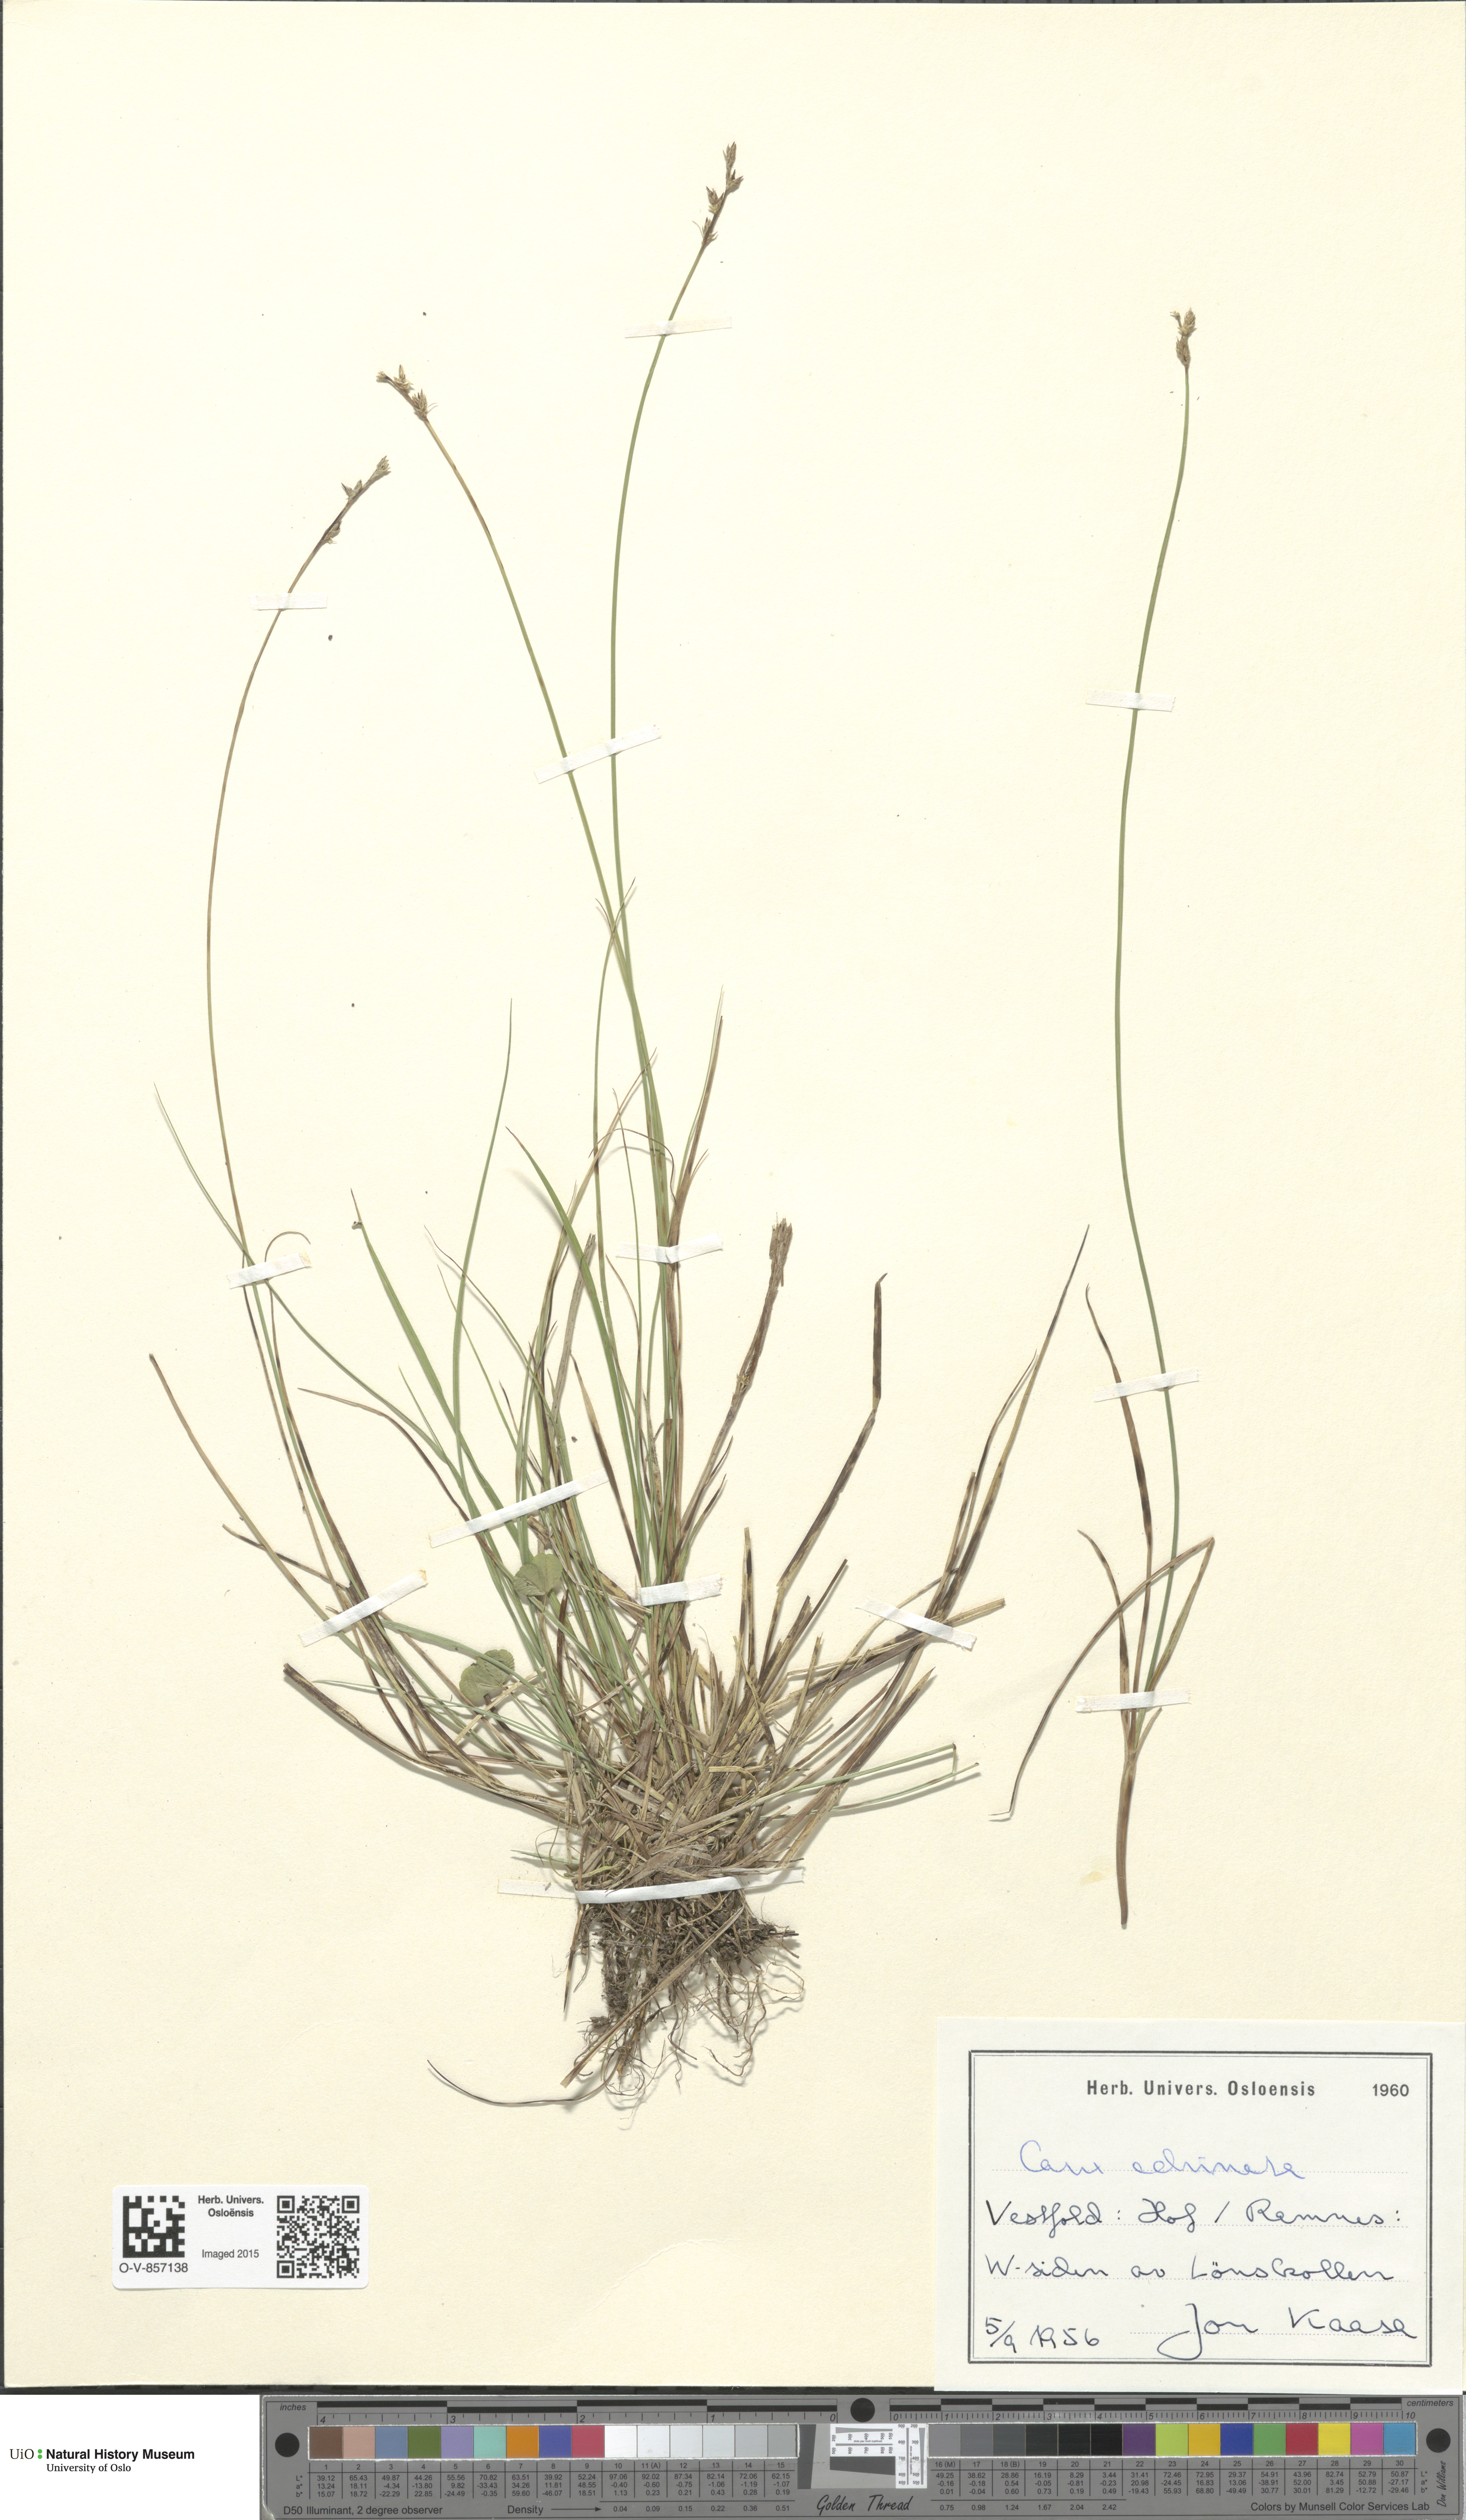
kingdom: Plantae
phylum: Tracheophyta
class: Liliopsida
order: Poales
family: Cyperaceae
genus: Carex
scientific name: Carex echinata
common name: Star sedge
